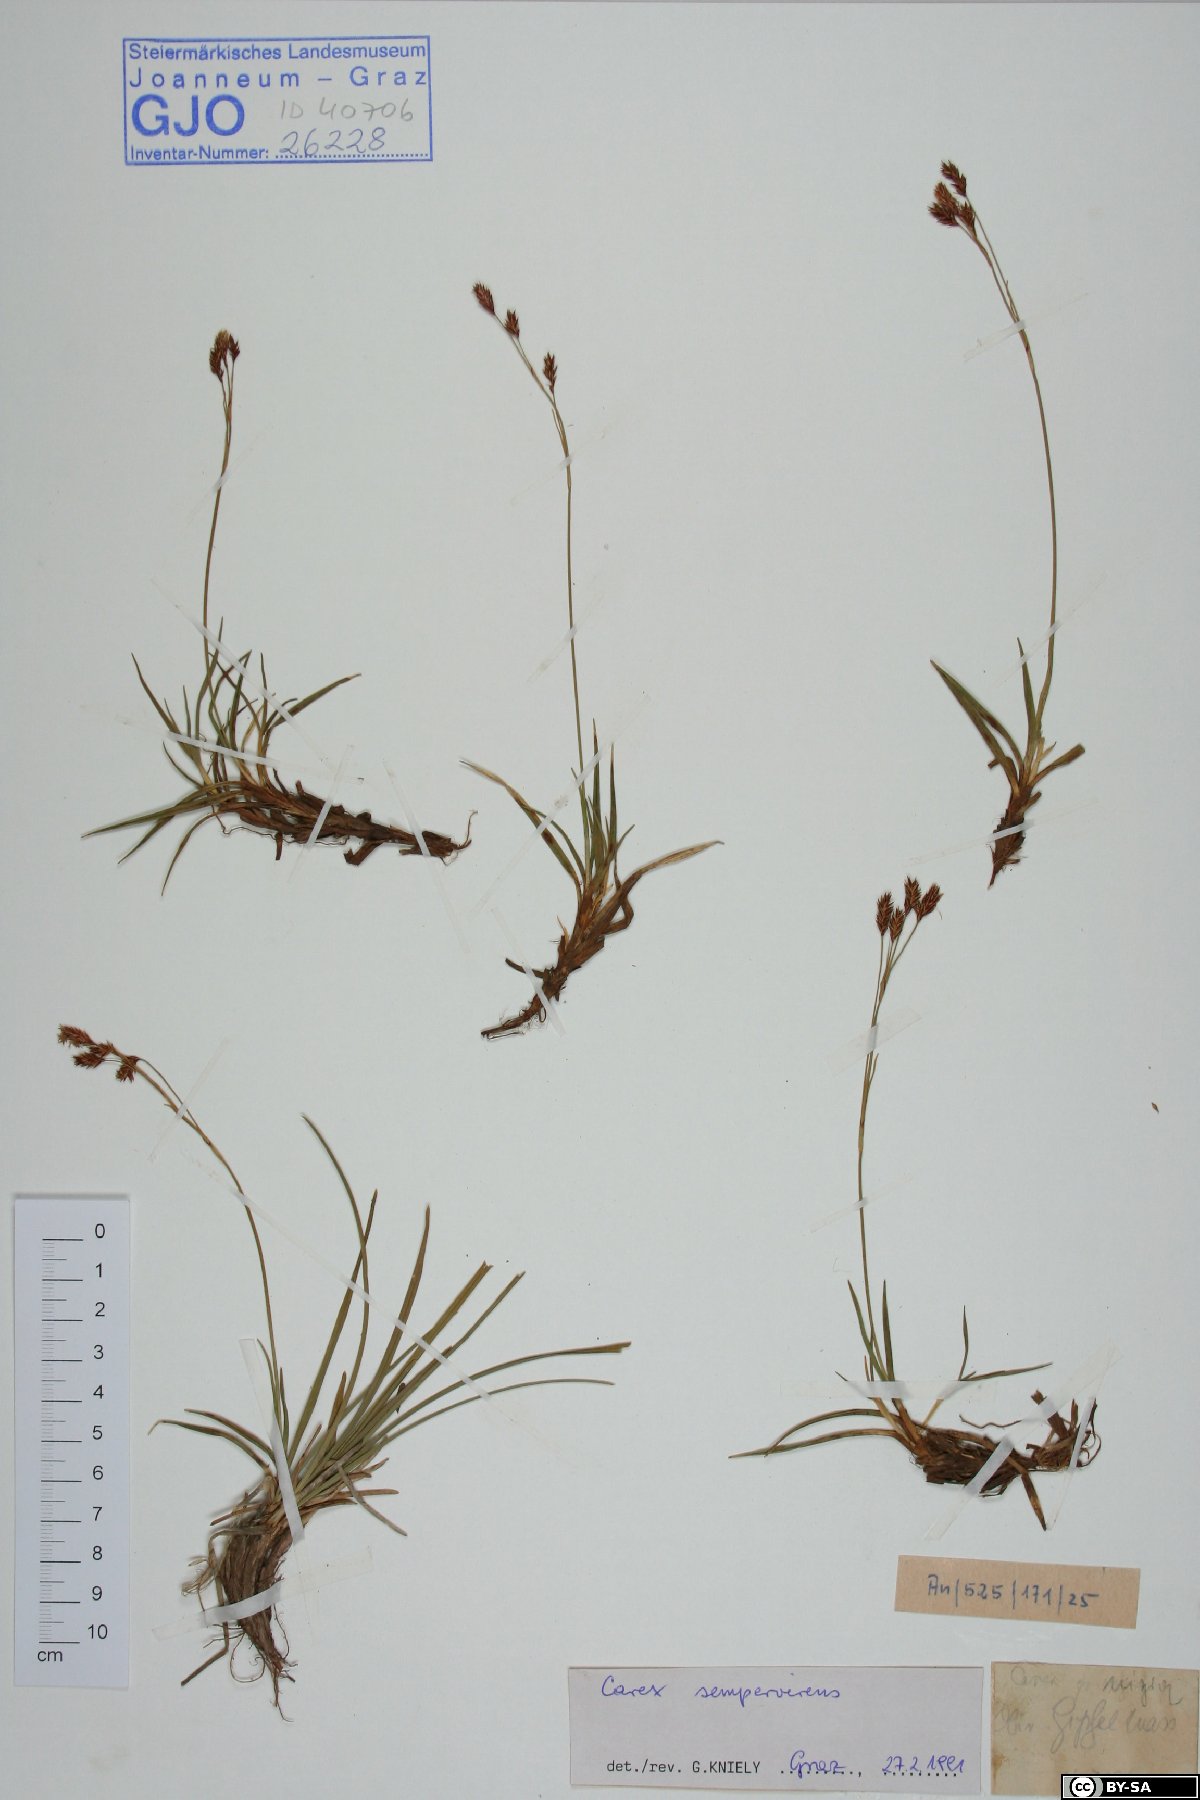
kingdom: Plantae
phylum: Tracheophyta
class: Liliopsida
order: Poales
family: Cyperaceae
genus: Carex
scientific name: Carex sempervirens
